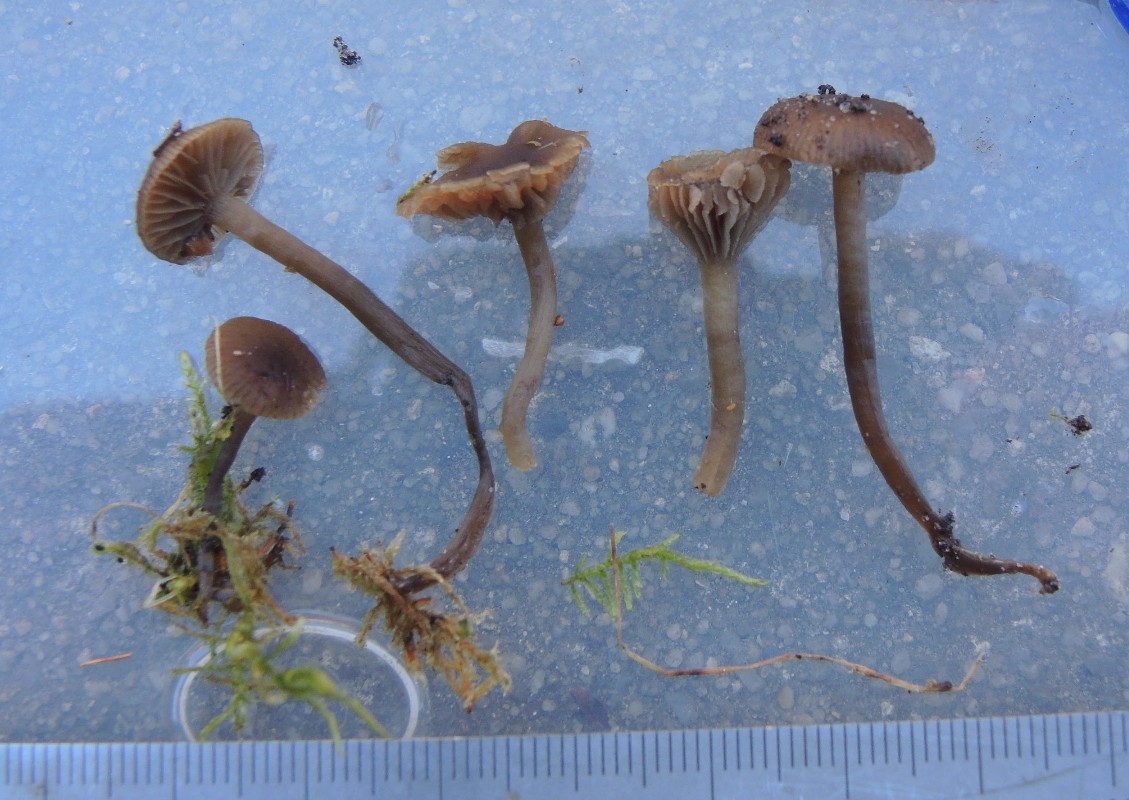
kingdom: Fungi
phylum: Basidiomycota
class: Agaricomycetes
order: Agaricales
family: Tricholomataceae
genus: Omphaliaster
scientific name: Omphaliaster asterosporus
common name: narrehat
